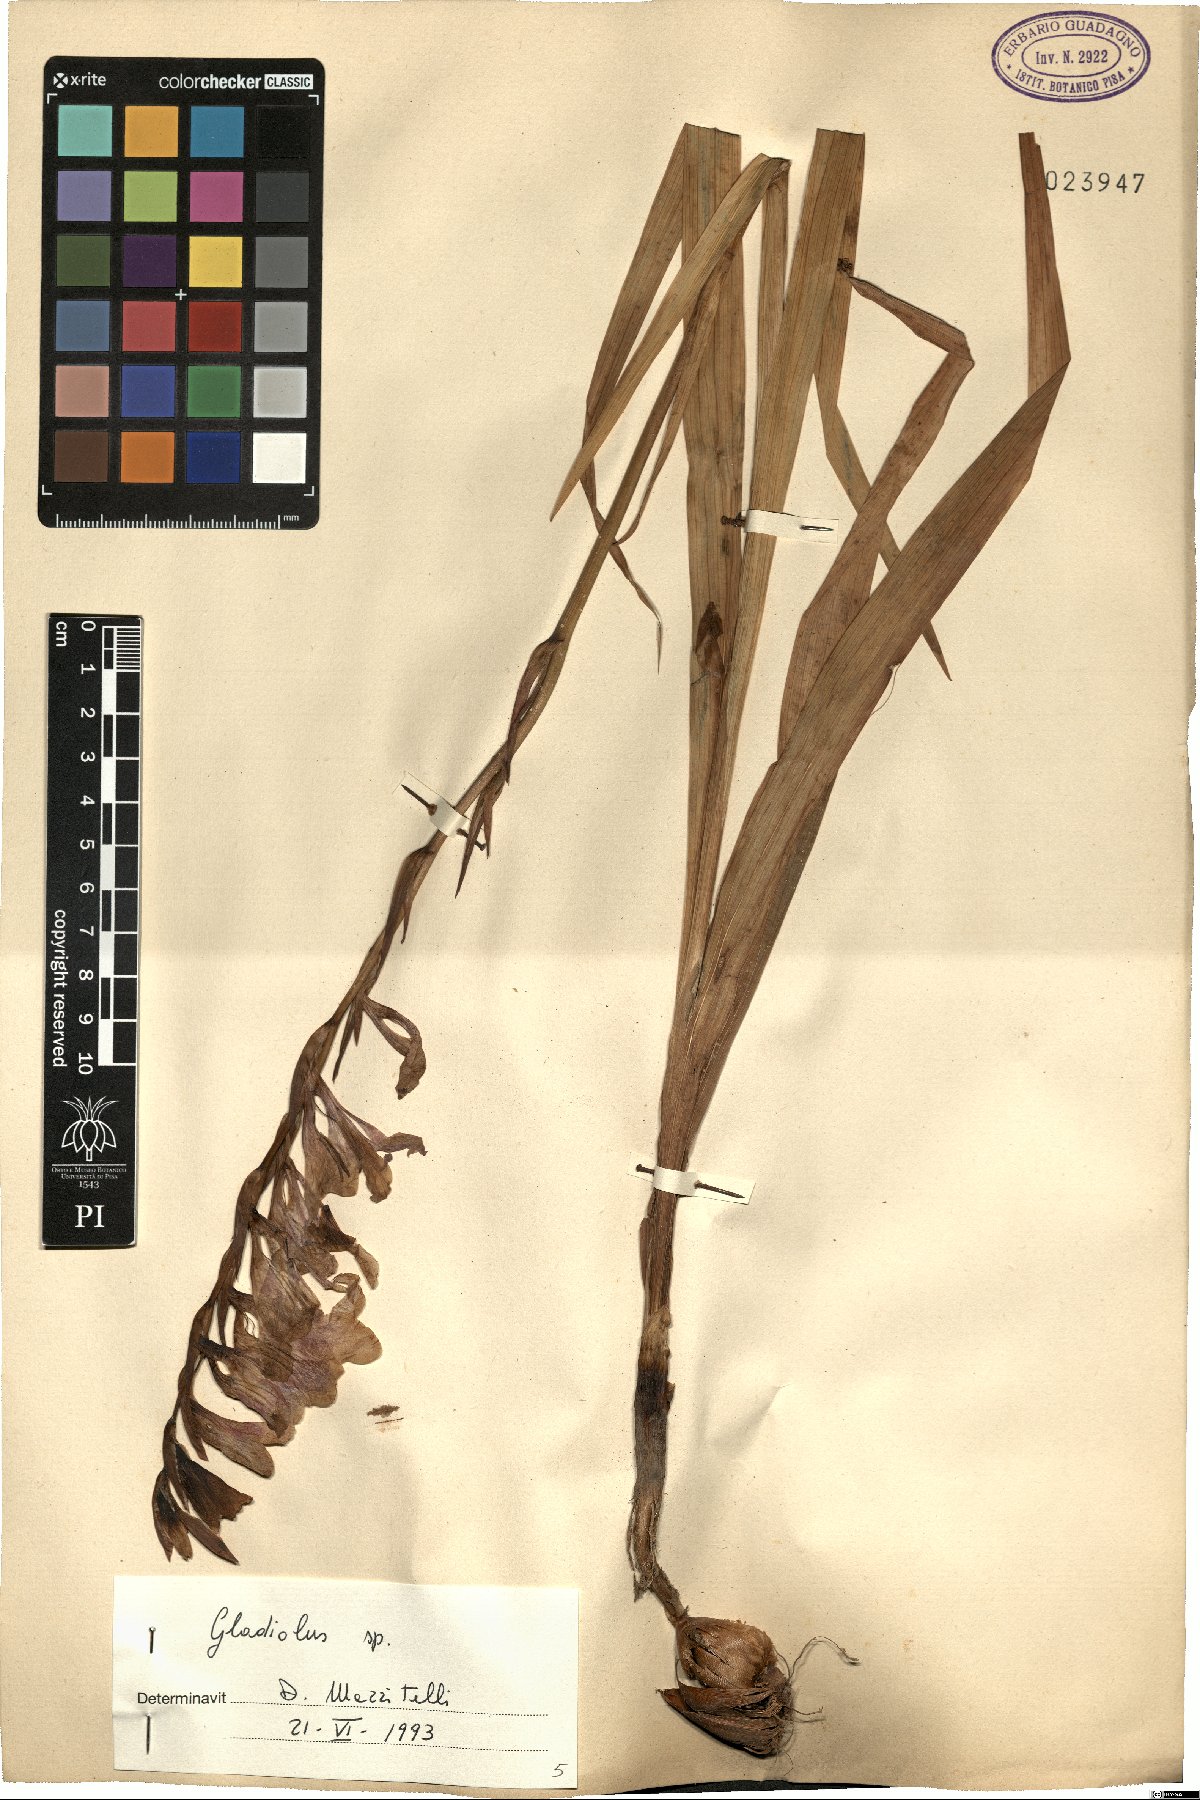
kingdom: Plantae
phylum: Tracheophyta
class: Liliopsida
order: Asparagales
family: Iridaceae
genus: Gladiolus
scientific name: Gladiolus
